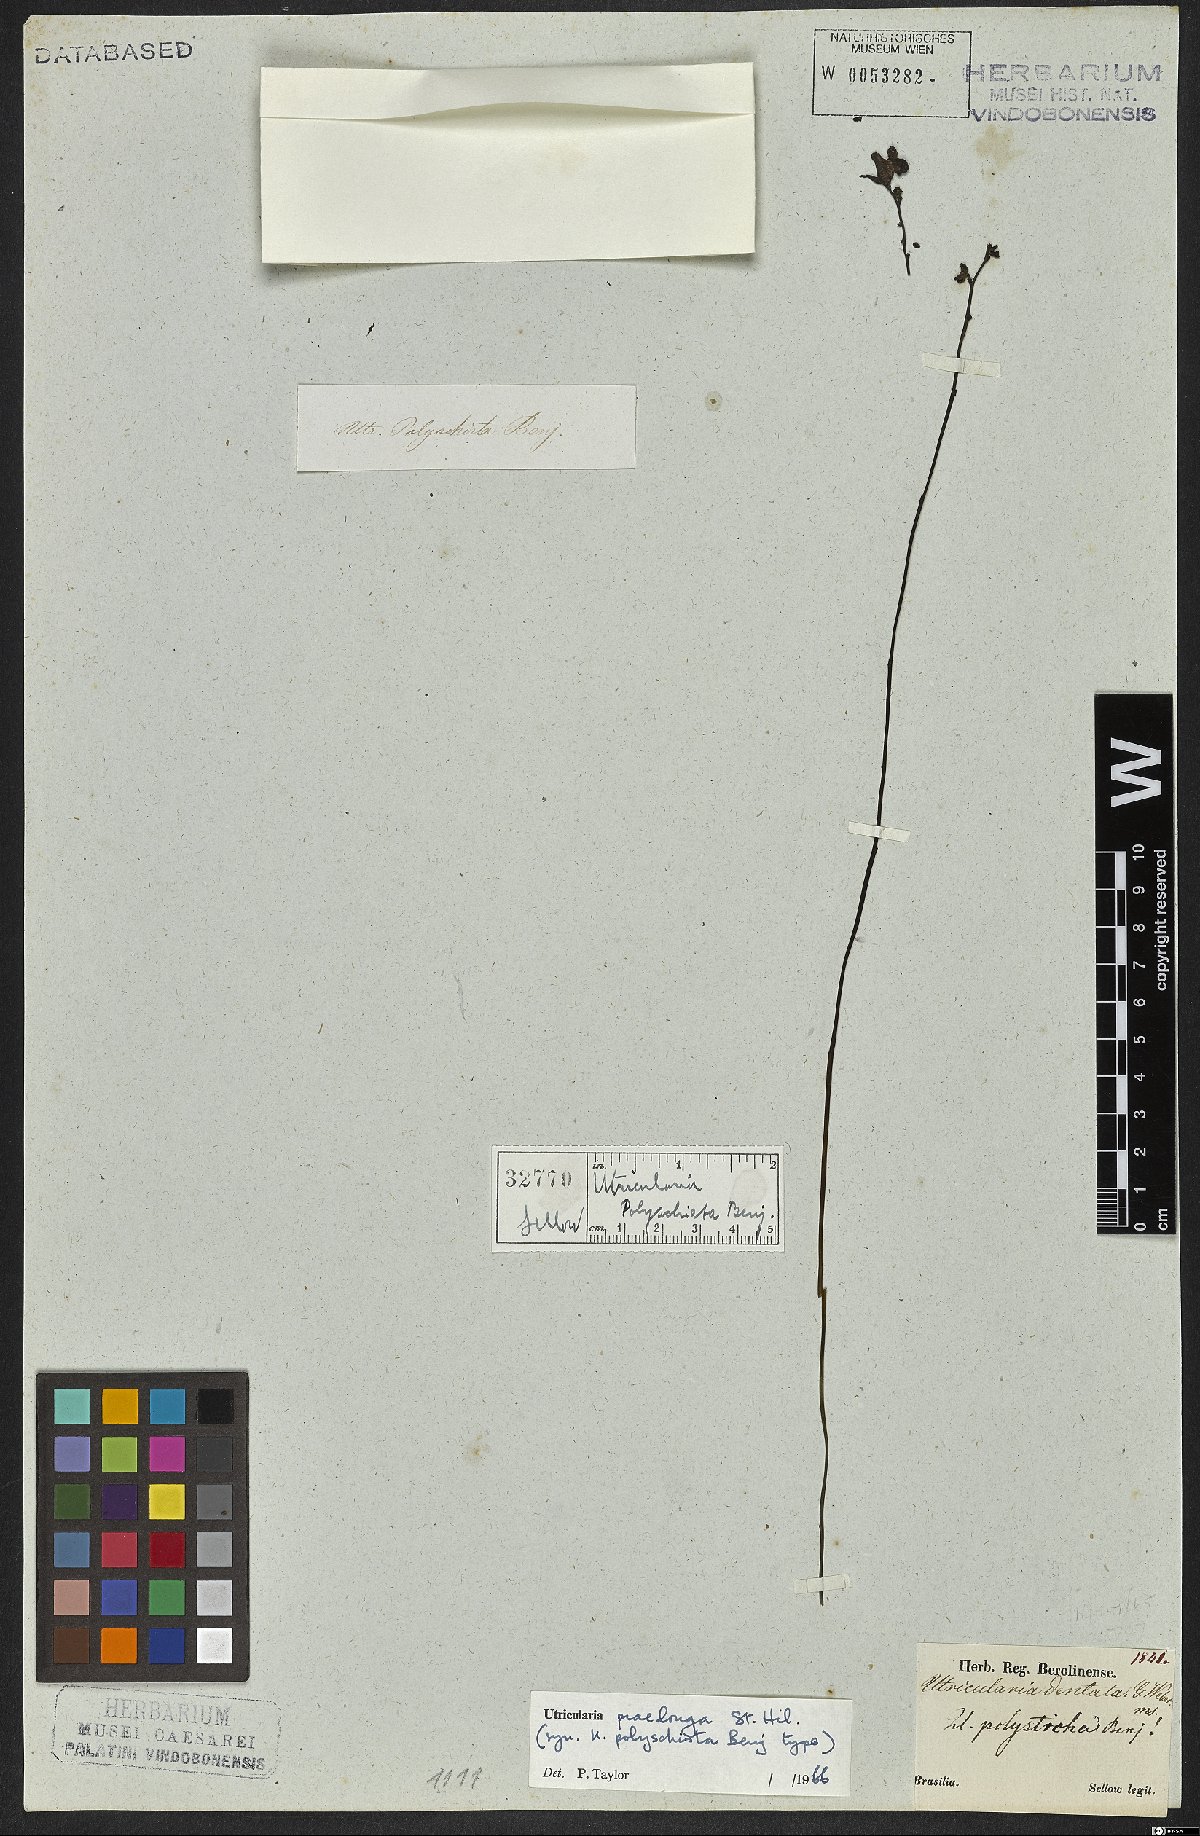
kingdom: Plantae
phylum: Tracheophyta
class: Magnoliopsida
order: Lamiales
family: Lentibulariaceae
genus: Utricularia
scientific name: Utricularia praelonga
